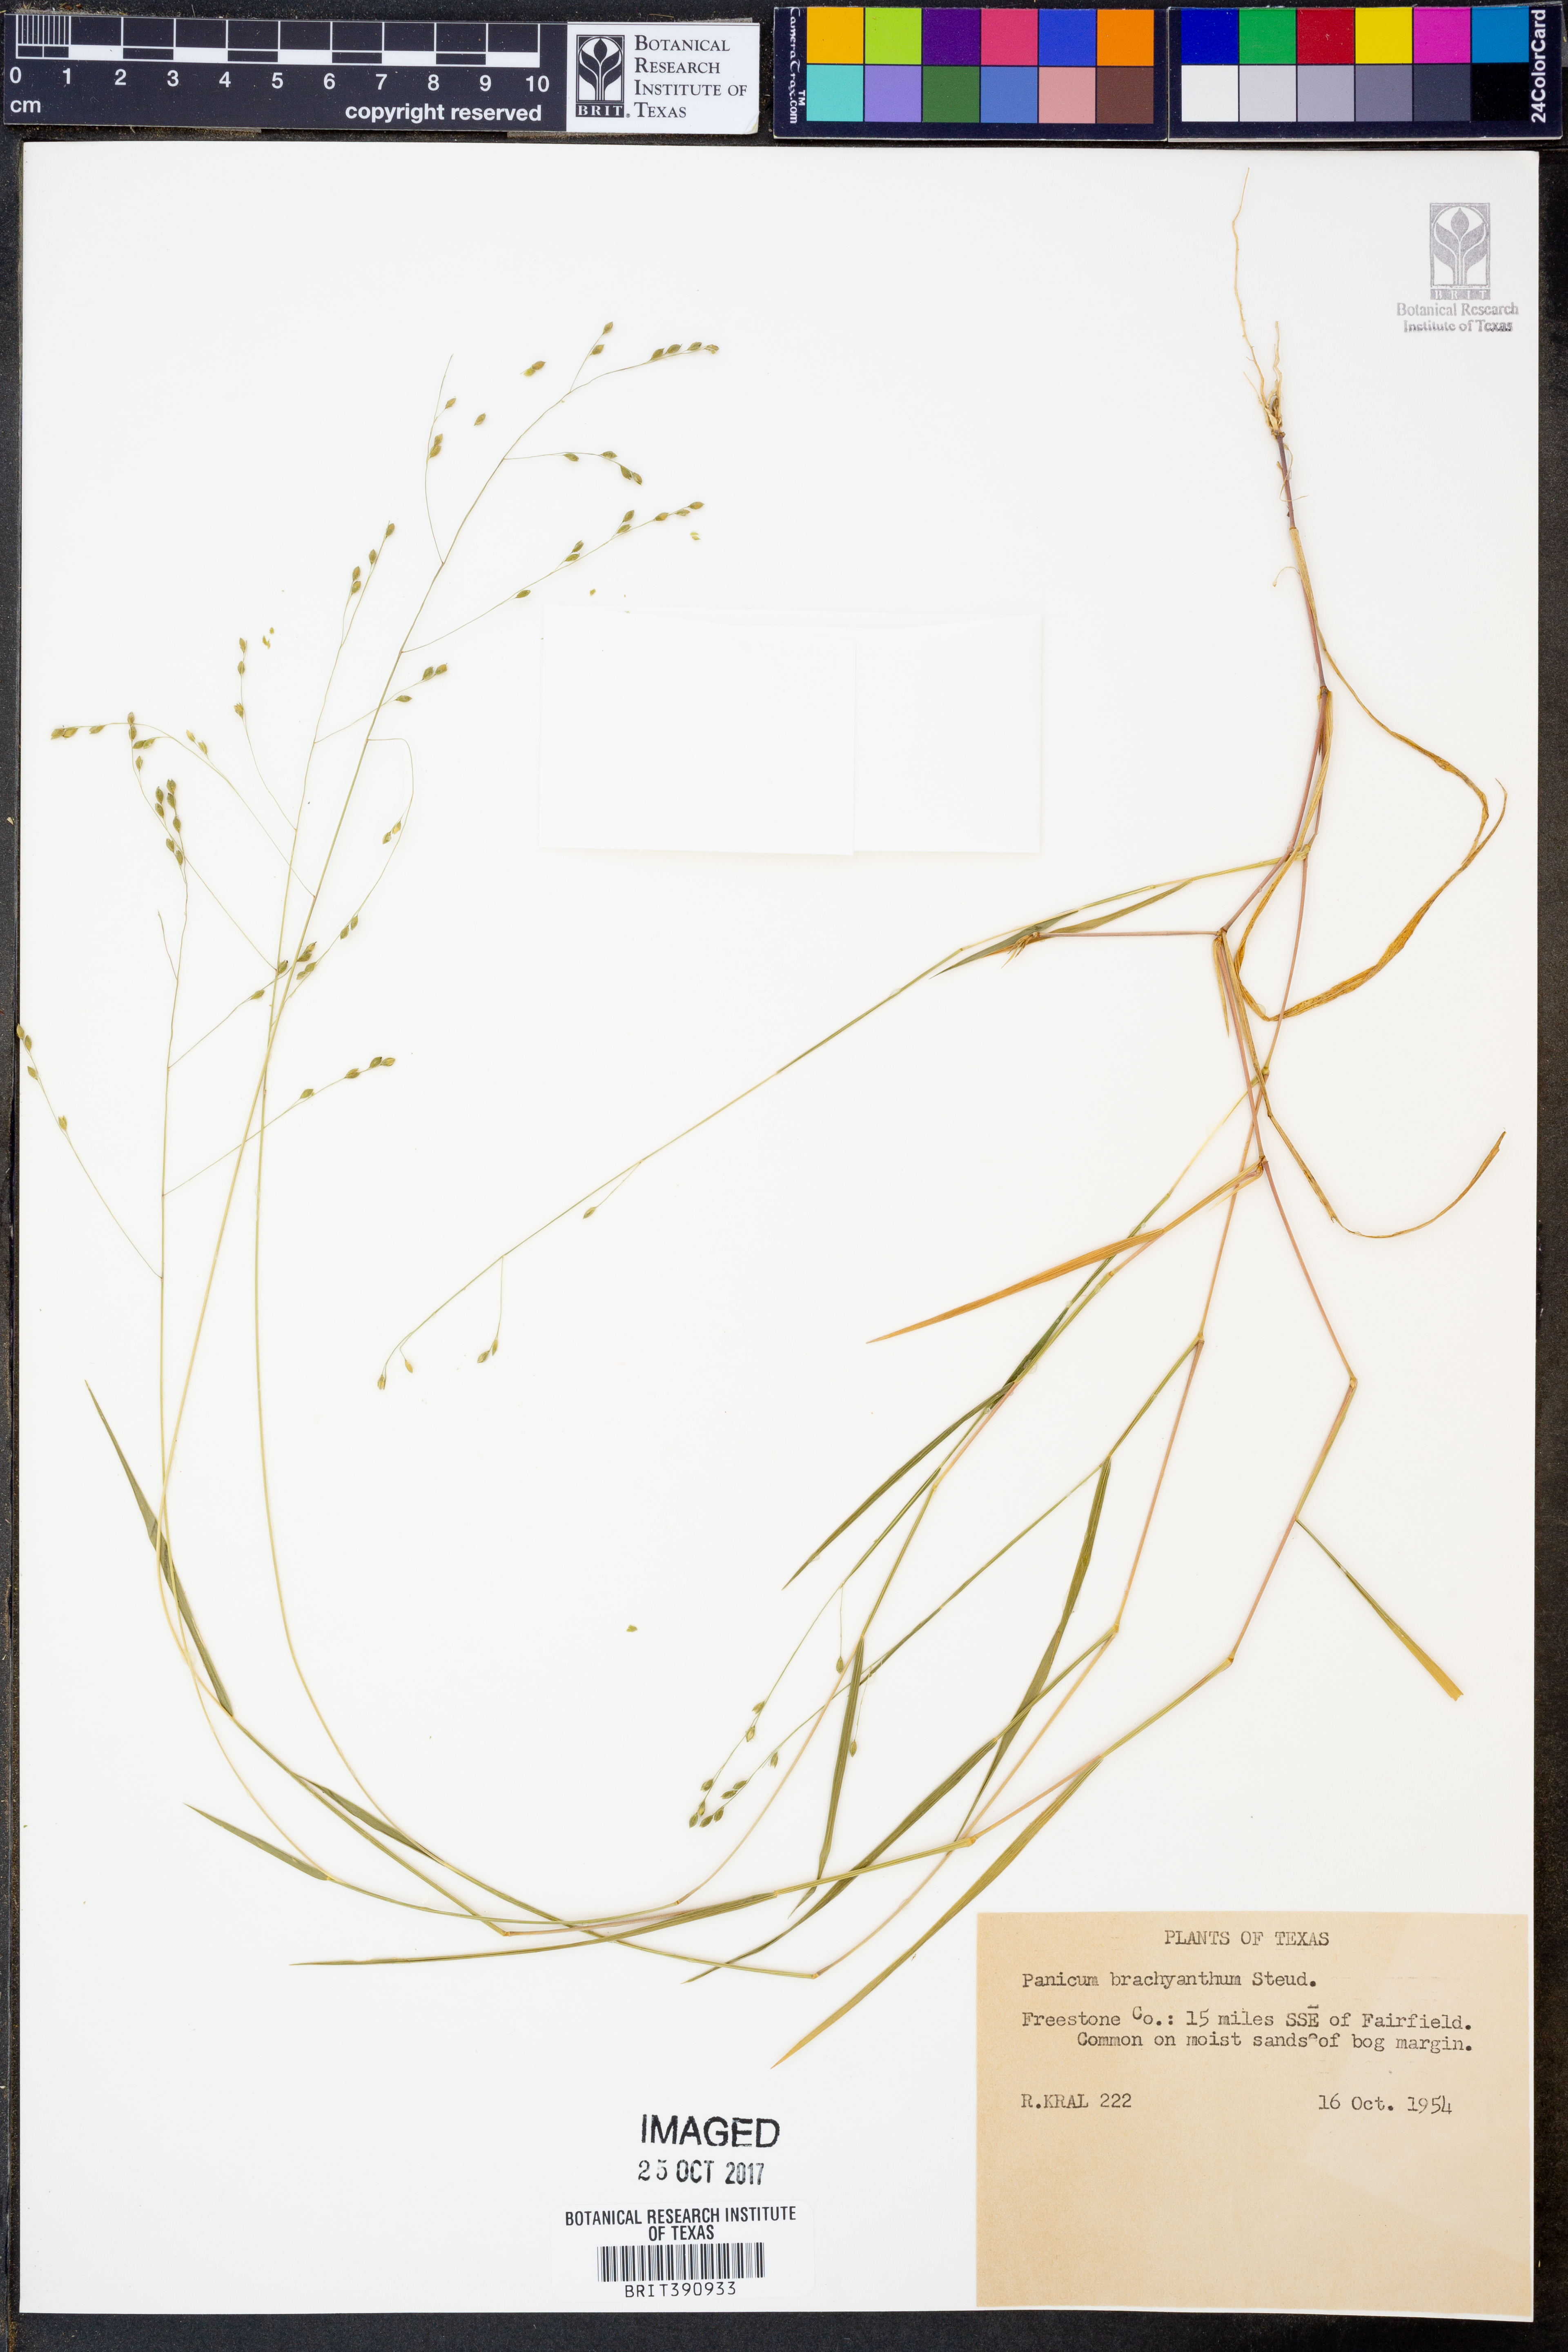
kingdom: Plantae
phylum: Tracheophyta
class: Liliopsida
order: Poales
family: Poaceae
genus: Kellochloa
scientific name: Kellochloa brachyantha
